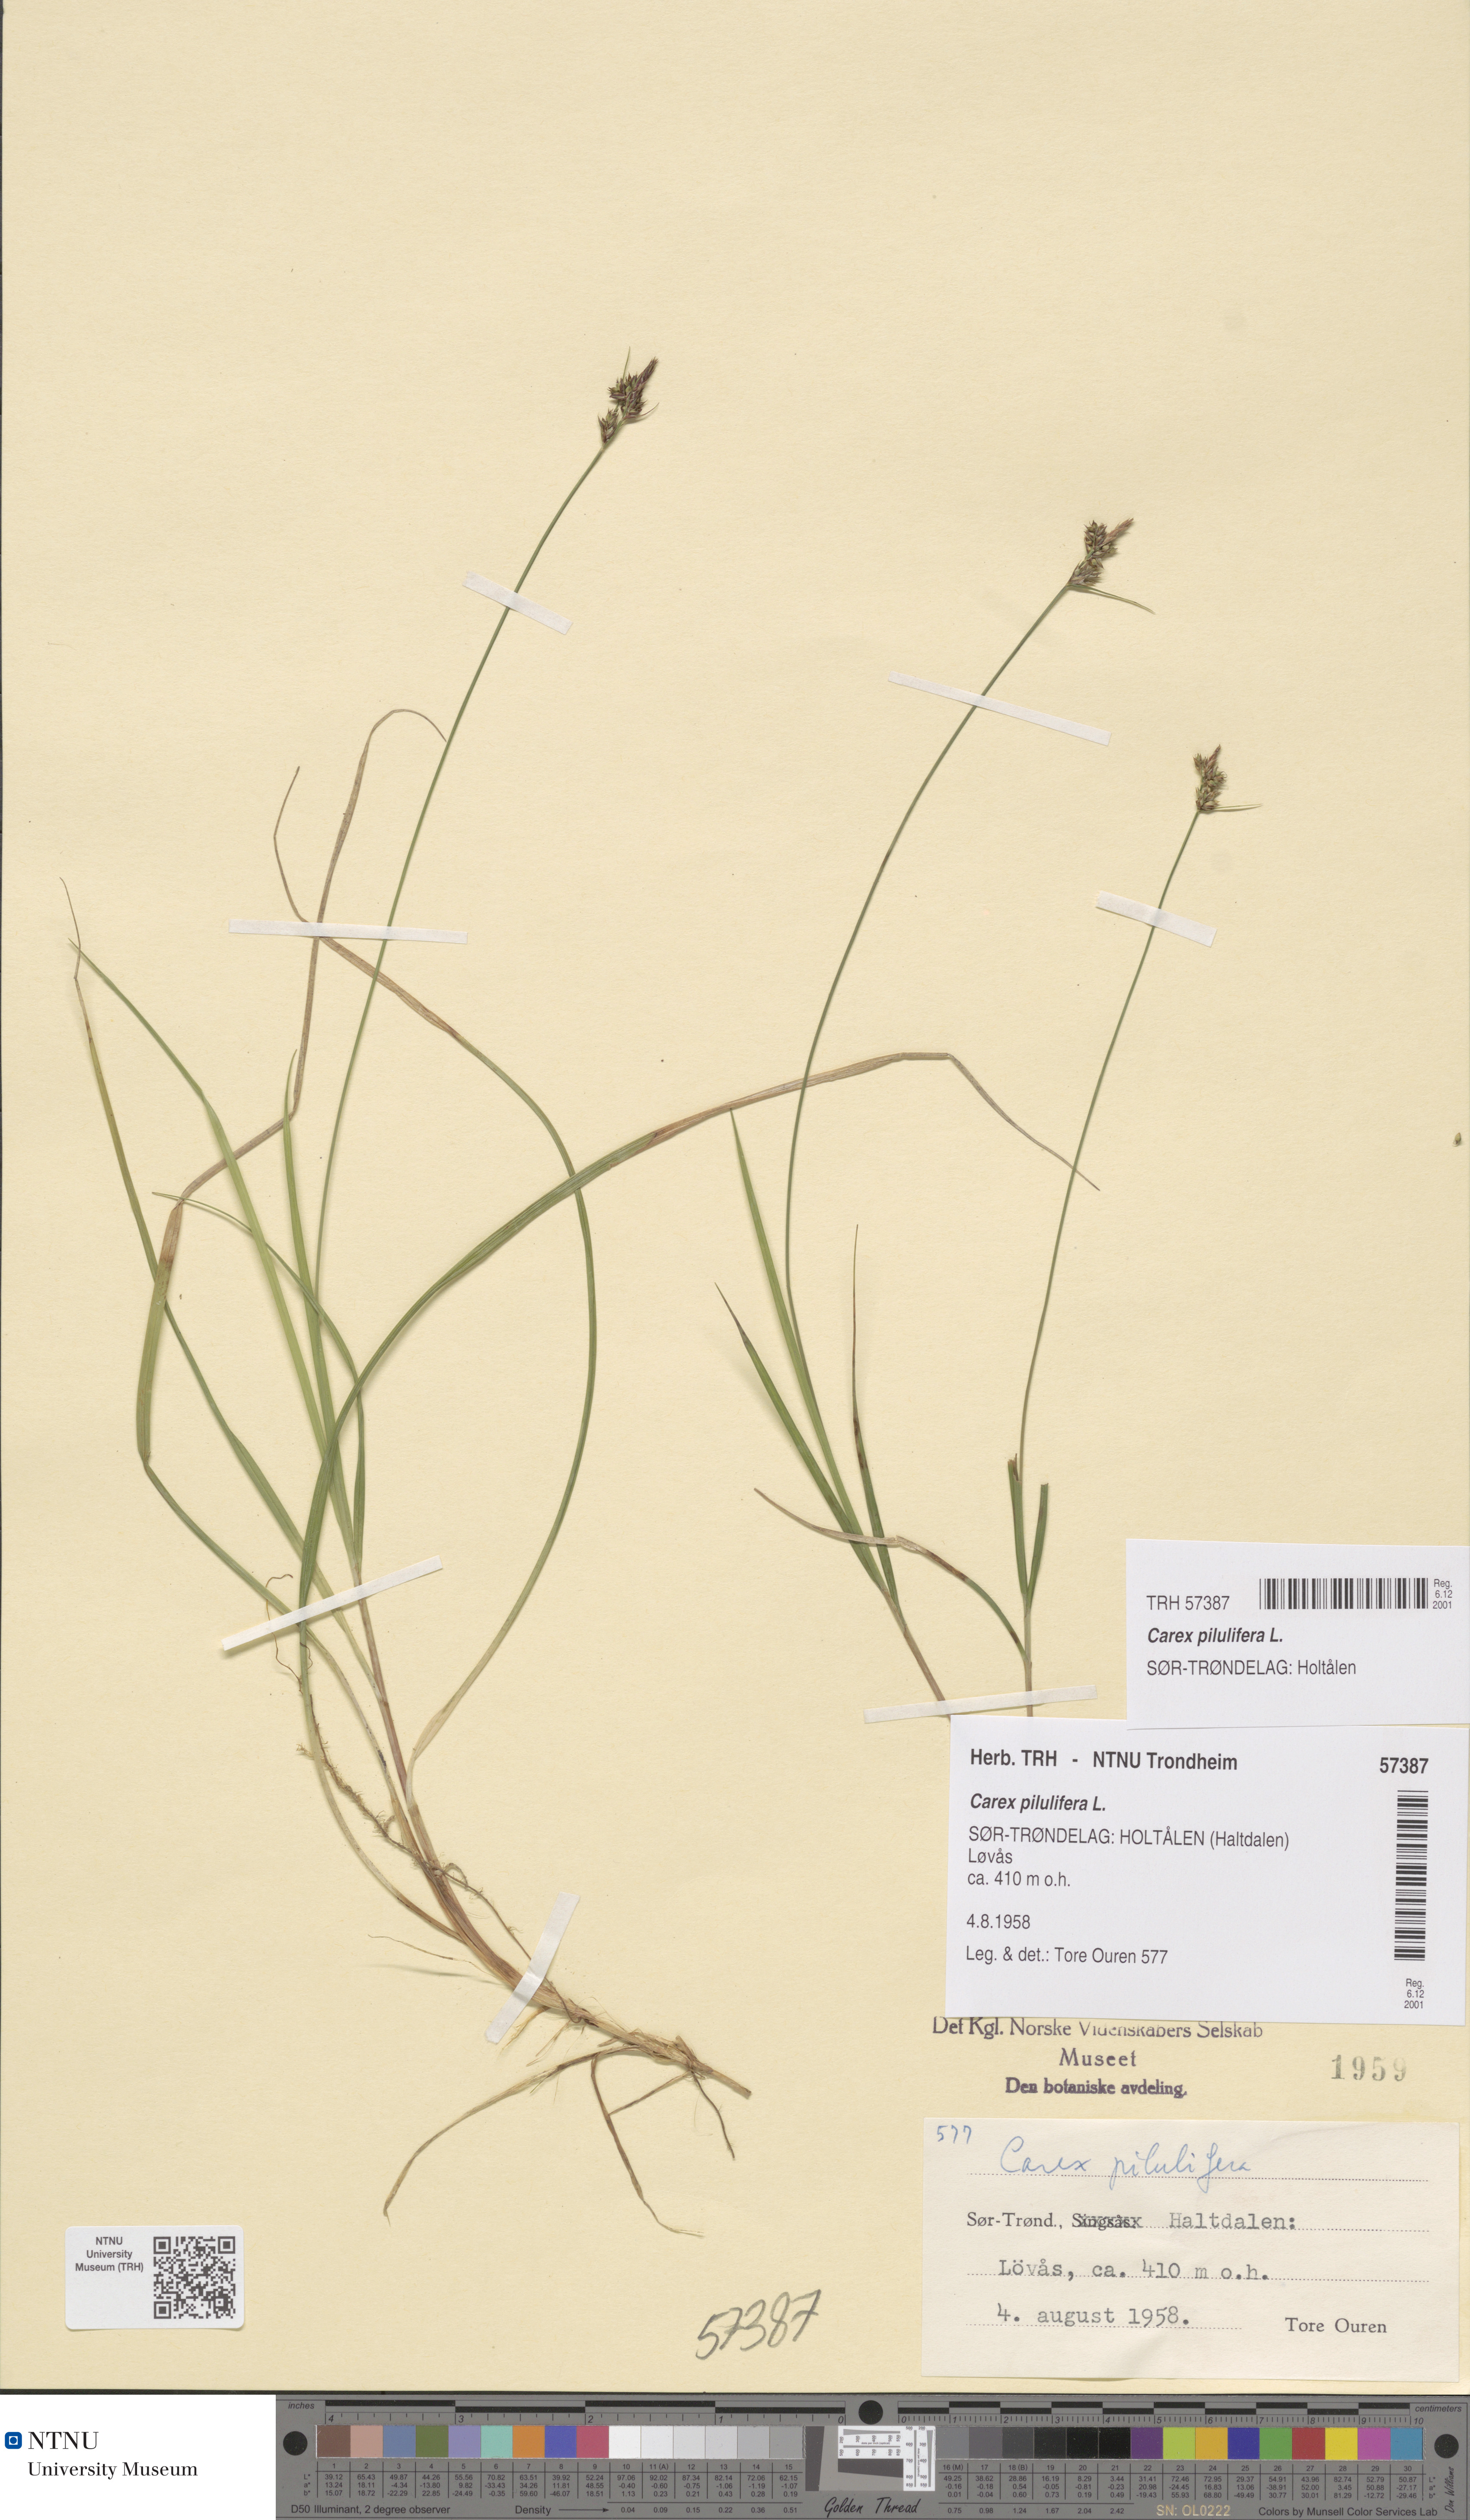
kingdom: Plantae
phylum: Tracheophyta
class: Liliopsida
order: Poales
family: Cyperaceae
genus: Carex
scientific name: Carex pilulifera
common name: Pill sedge
